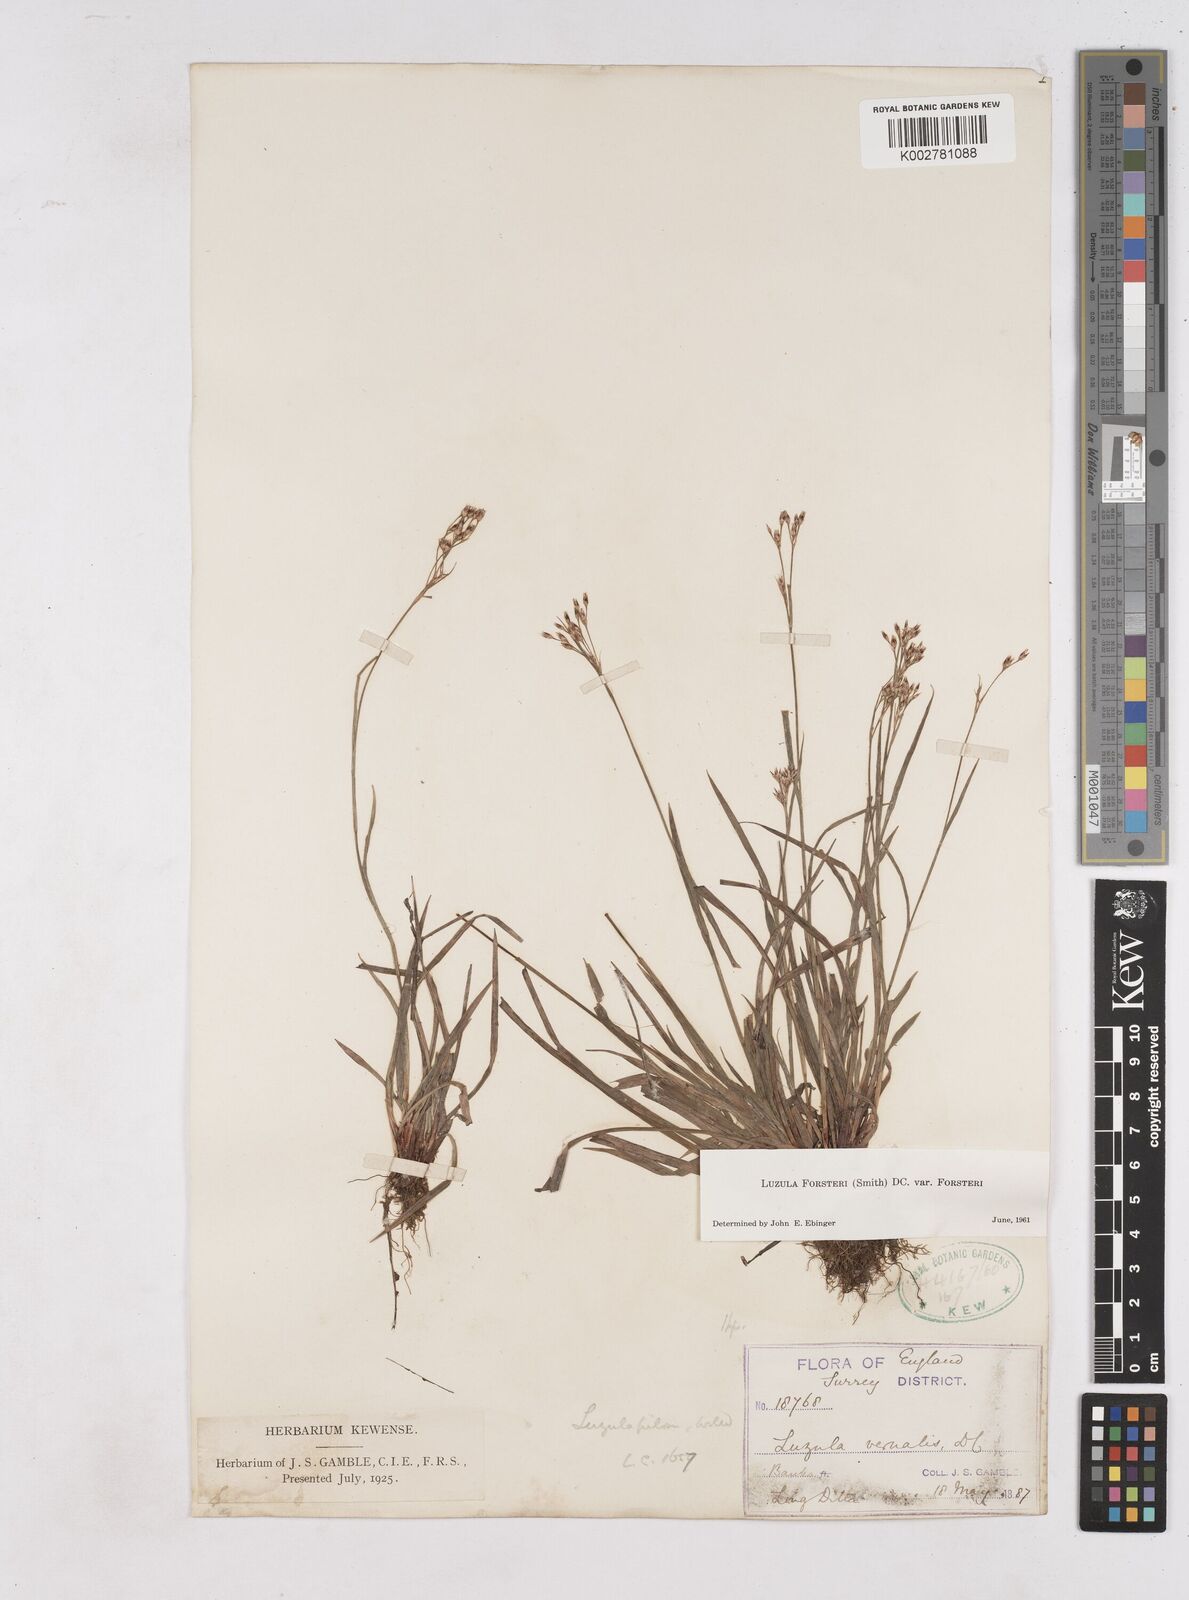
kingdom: Plantae
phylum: Tracheophyta
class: Liliopsida
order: Poales
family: Juncaceae
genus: Luzula
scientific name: Luzula forsteri
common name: Southern wood-rush
